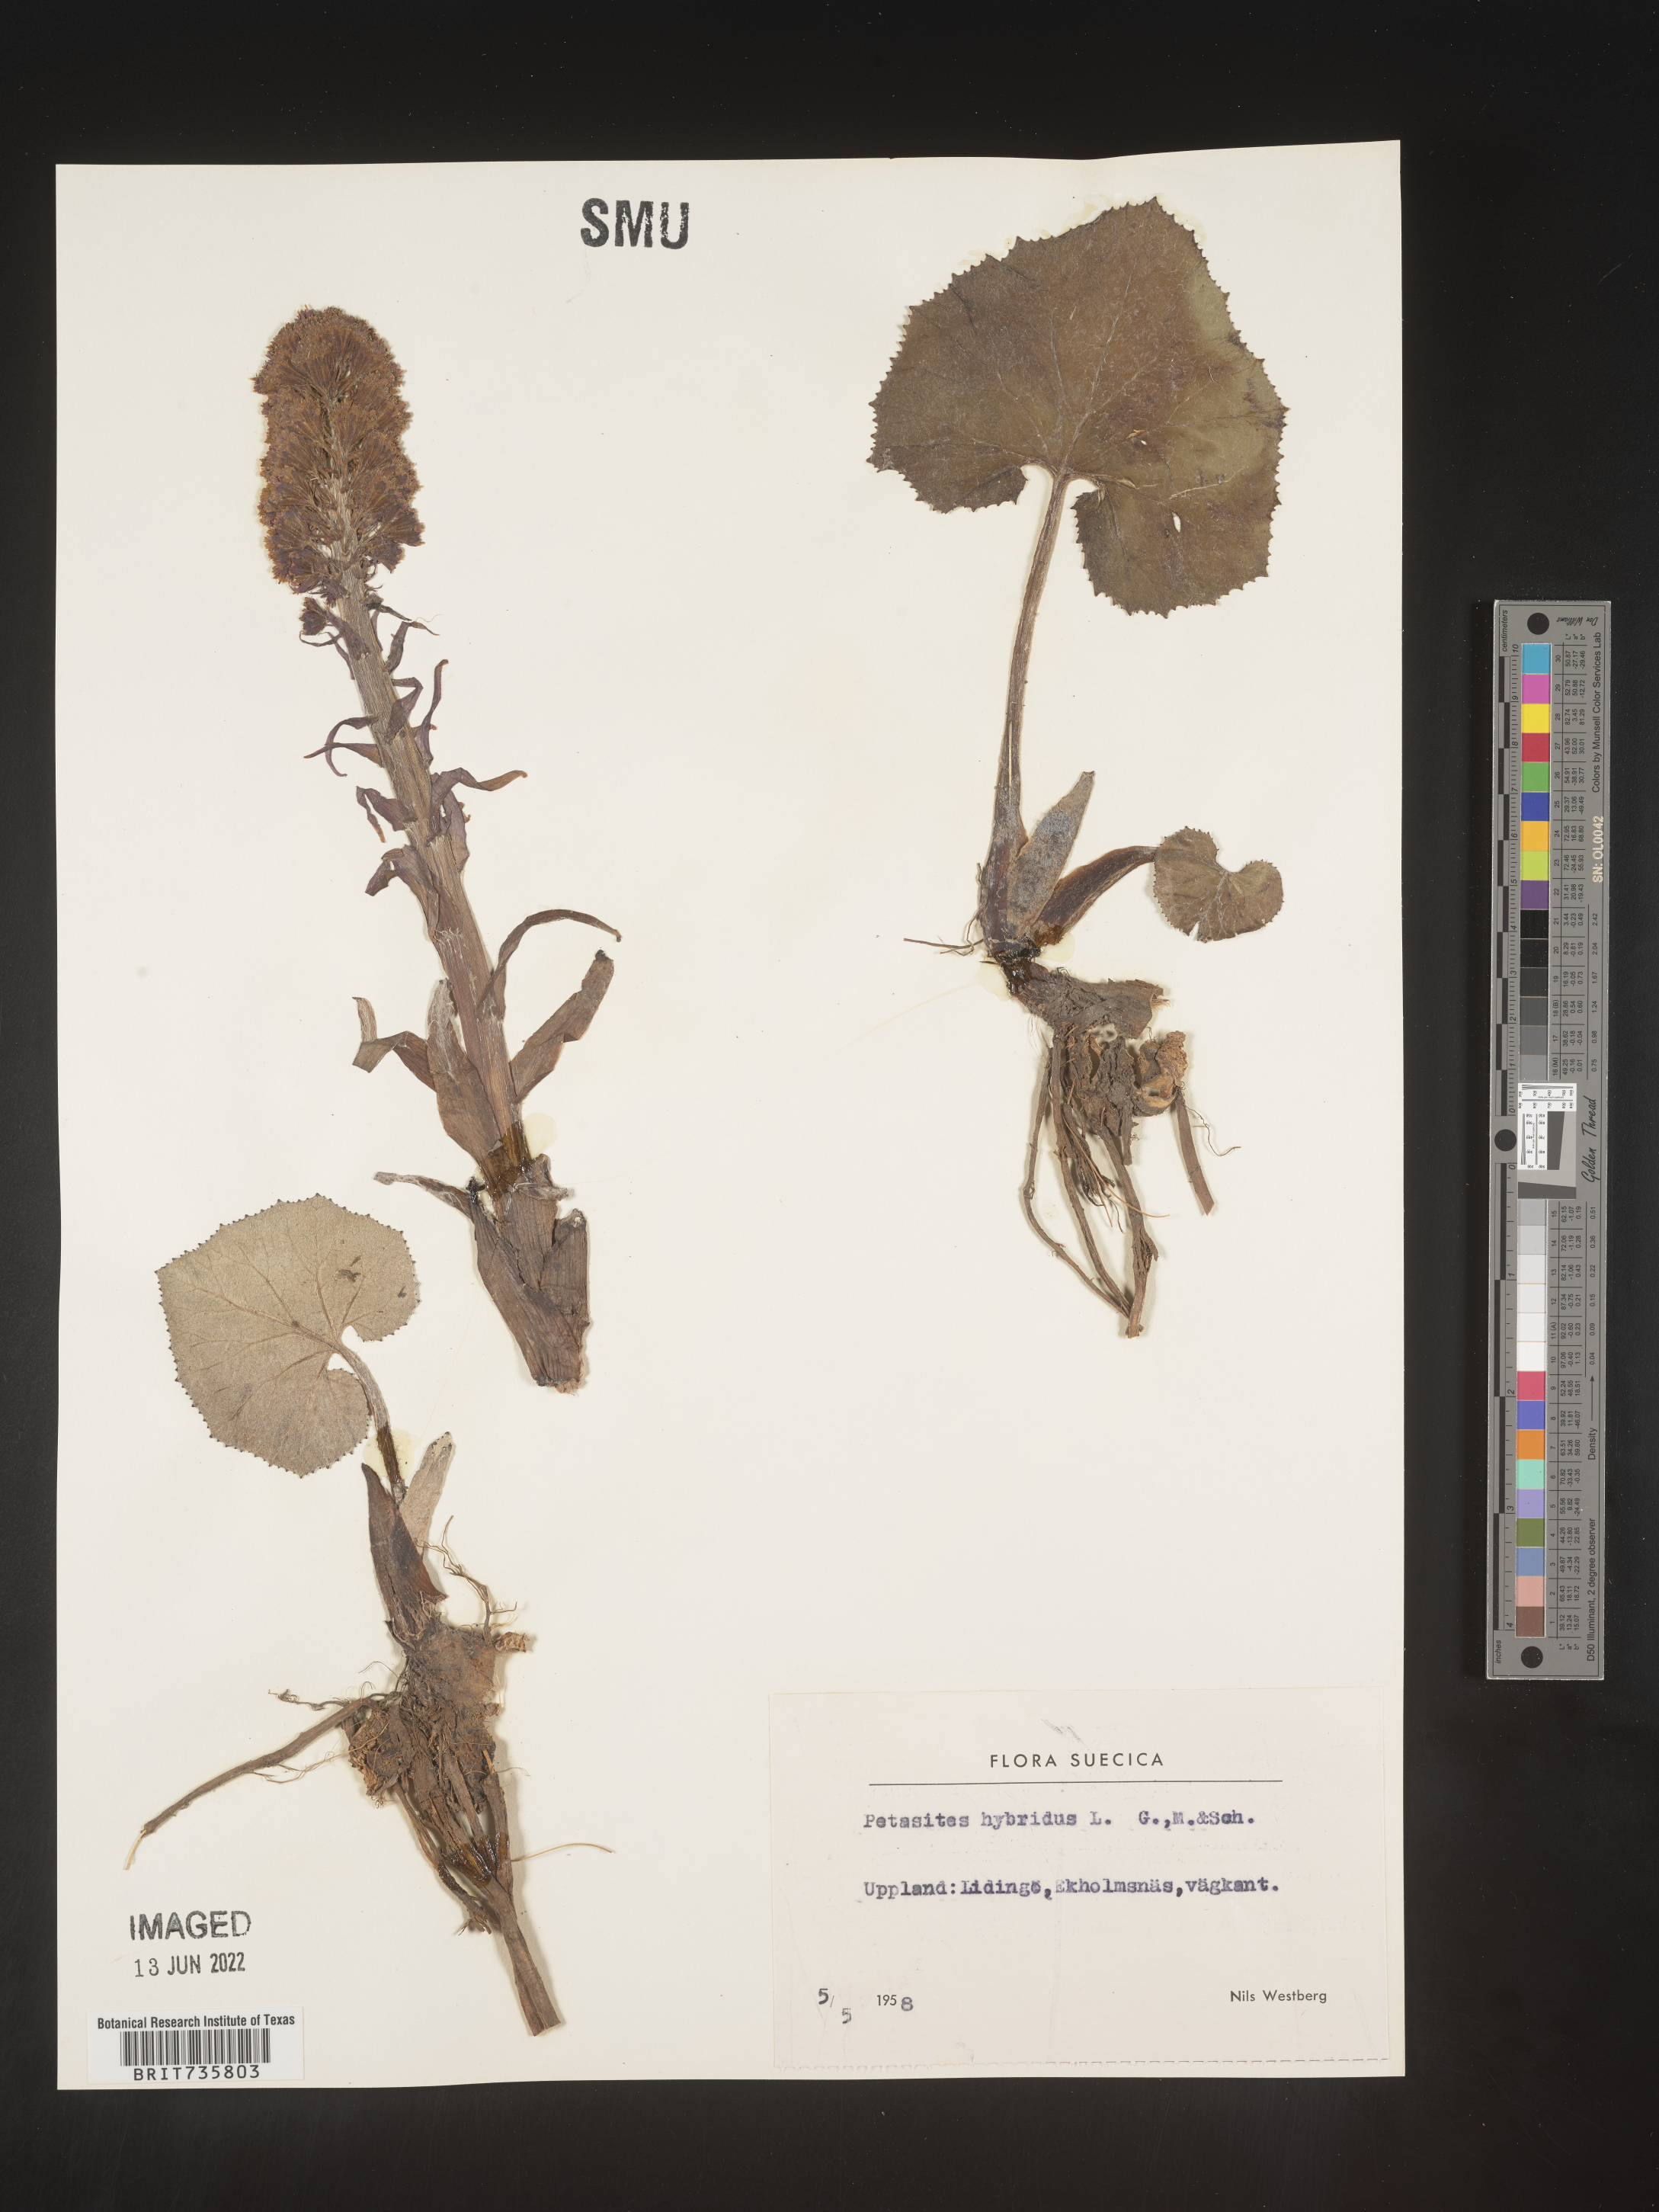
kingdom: Plantae
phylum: Tracheophyta
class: Magnoliopsida
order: Asterales
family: Asteraceae
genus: Petasites
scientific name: Petasites
